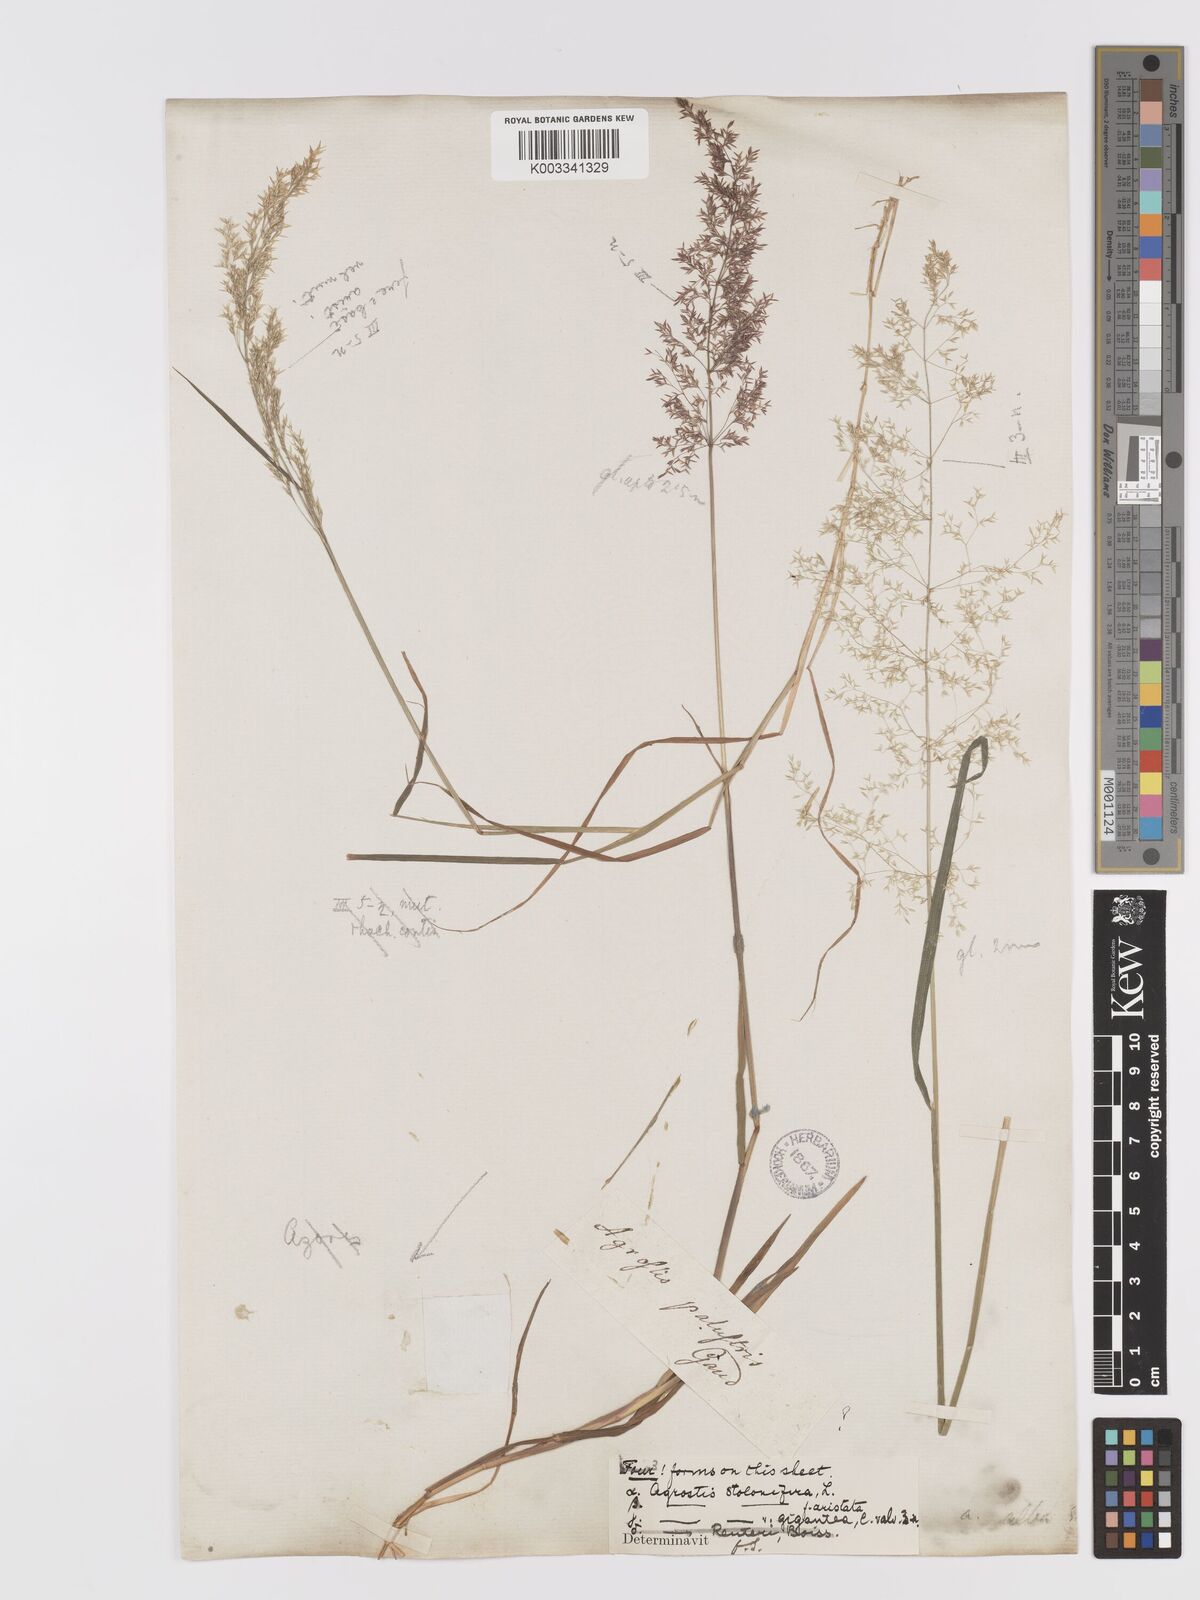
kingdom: Plantae
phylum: Tracheophyta
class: Liliopsida
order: Poales
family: Poaceae
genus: Agrostis
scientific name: Agrostis gigantea
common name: Black bent
